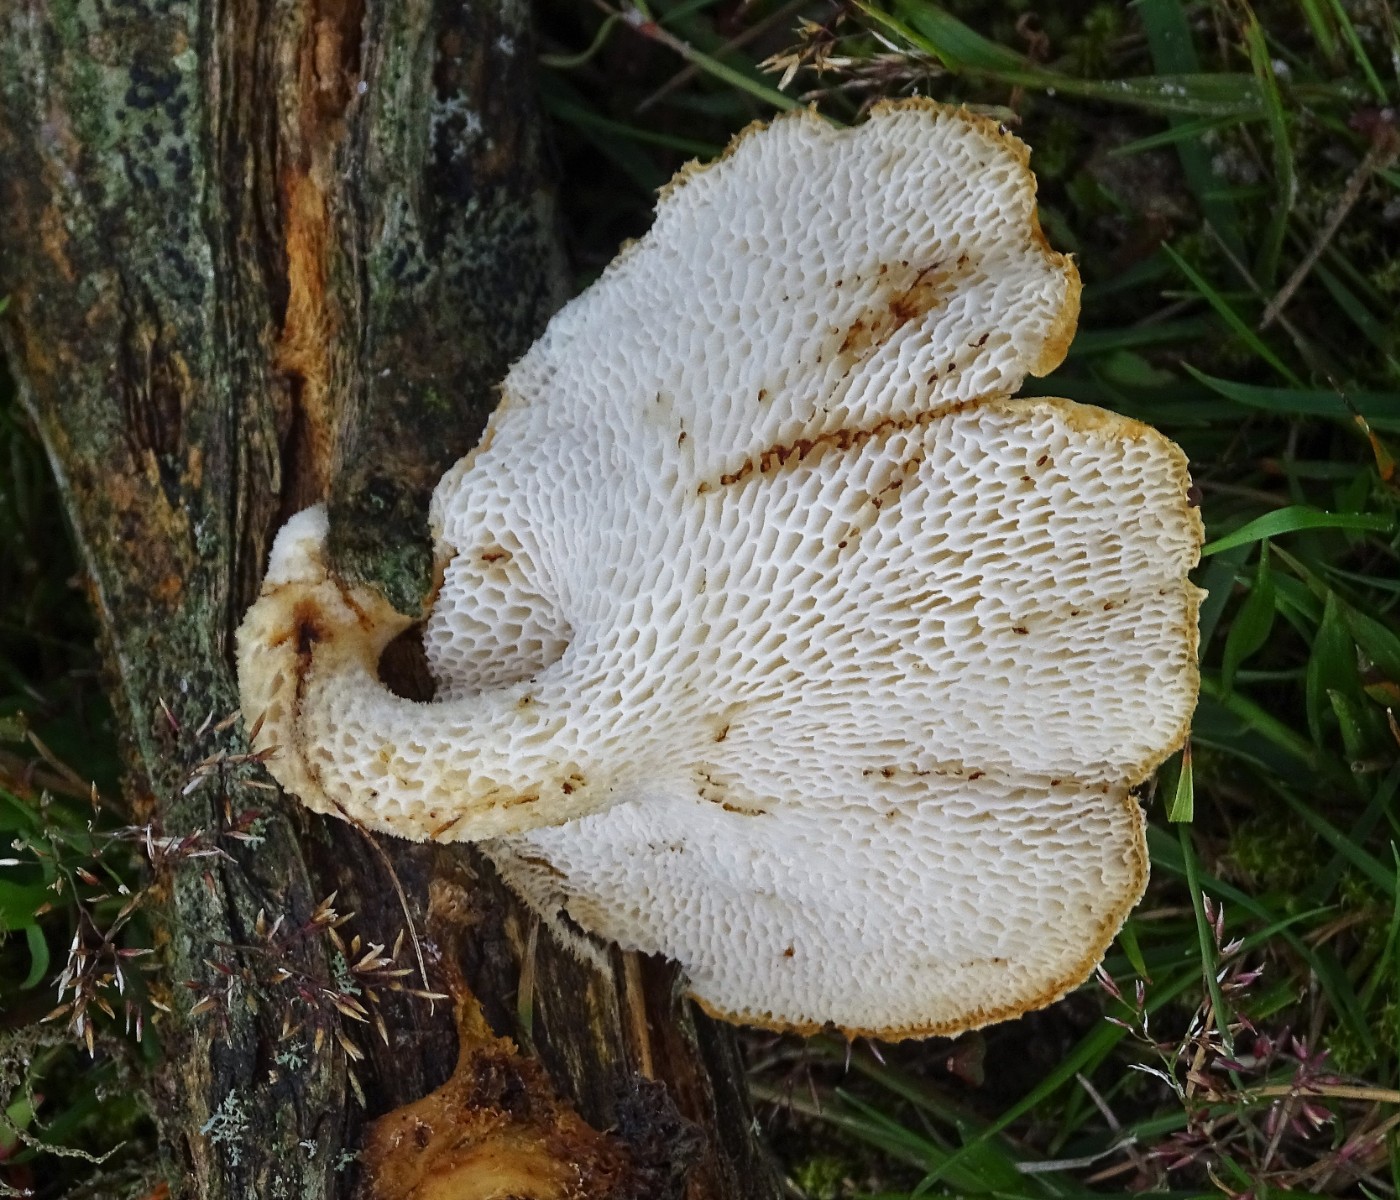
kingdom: Fungi
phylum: Basidiomycota
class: Agaricomycetes
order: Polyporales
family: Polyporaceae
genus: Polyporus
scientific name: Polyporus tuberaster
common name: knoldet stilkporesvamp
